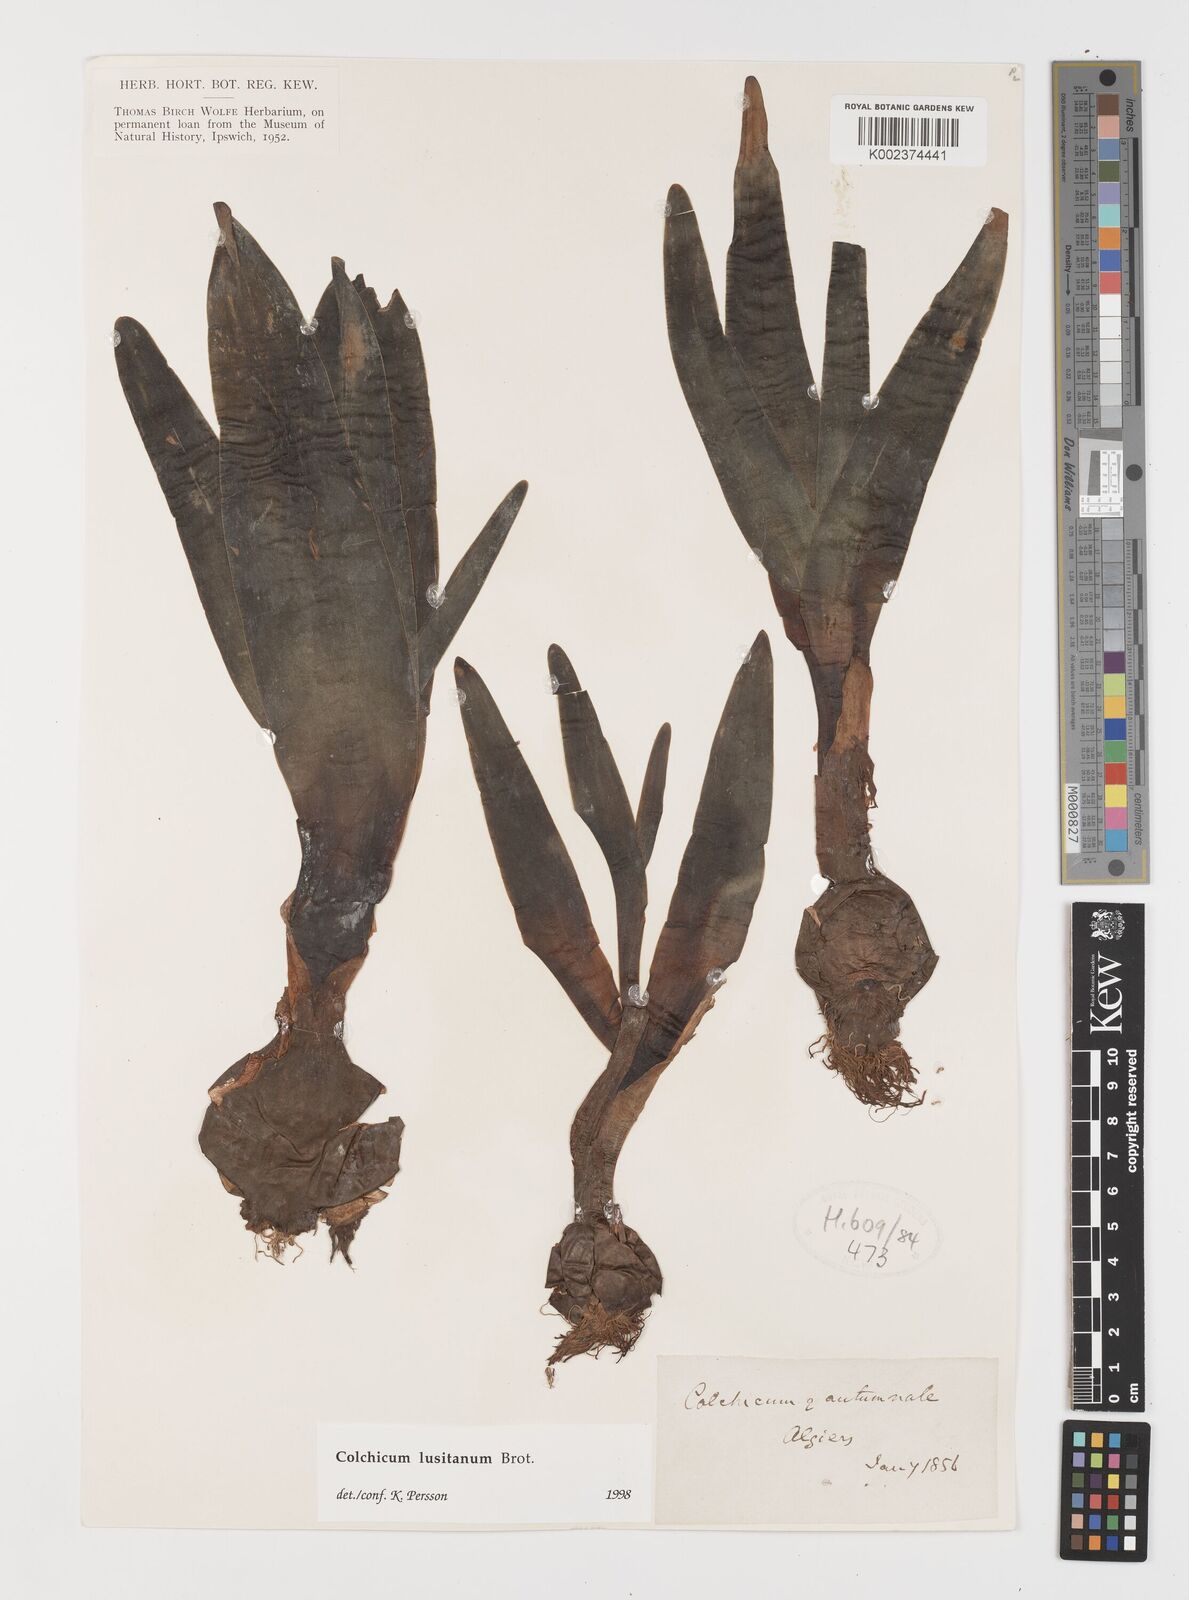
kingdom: Plantae
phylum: Tracheophyta
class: Liliopsida
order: Liliales
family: Colchicaceae
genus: Colchicum
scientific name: Colchicum lusitanum
